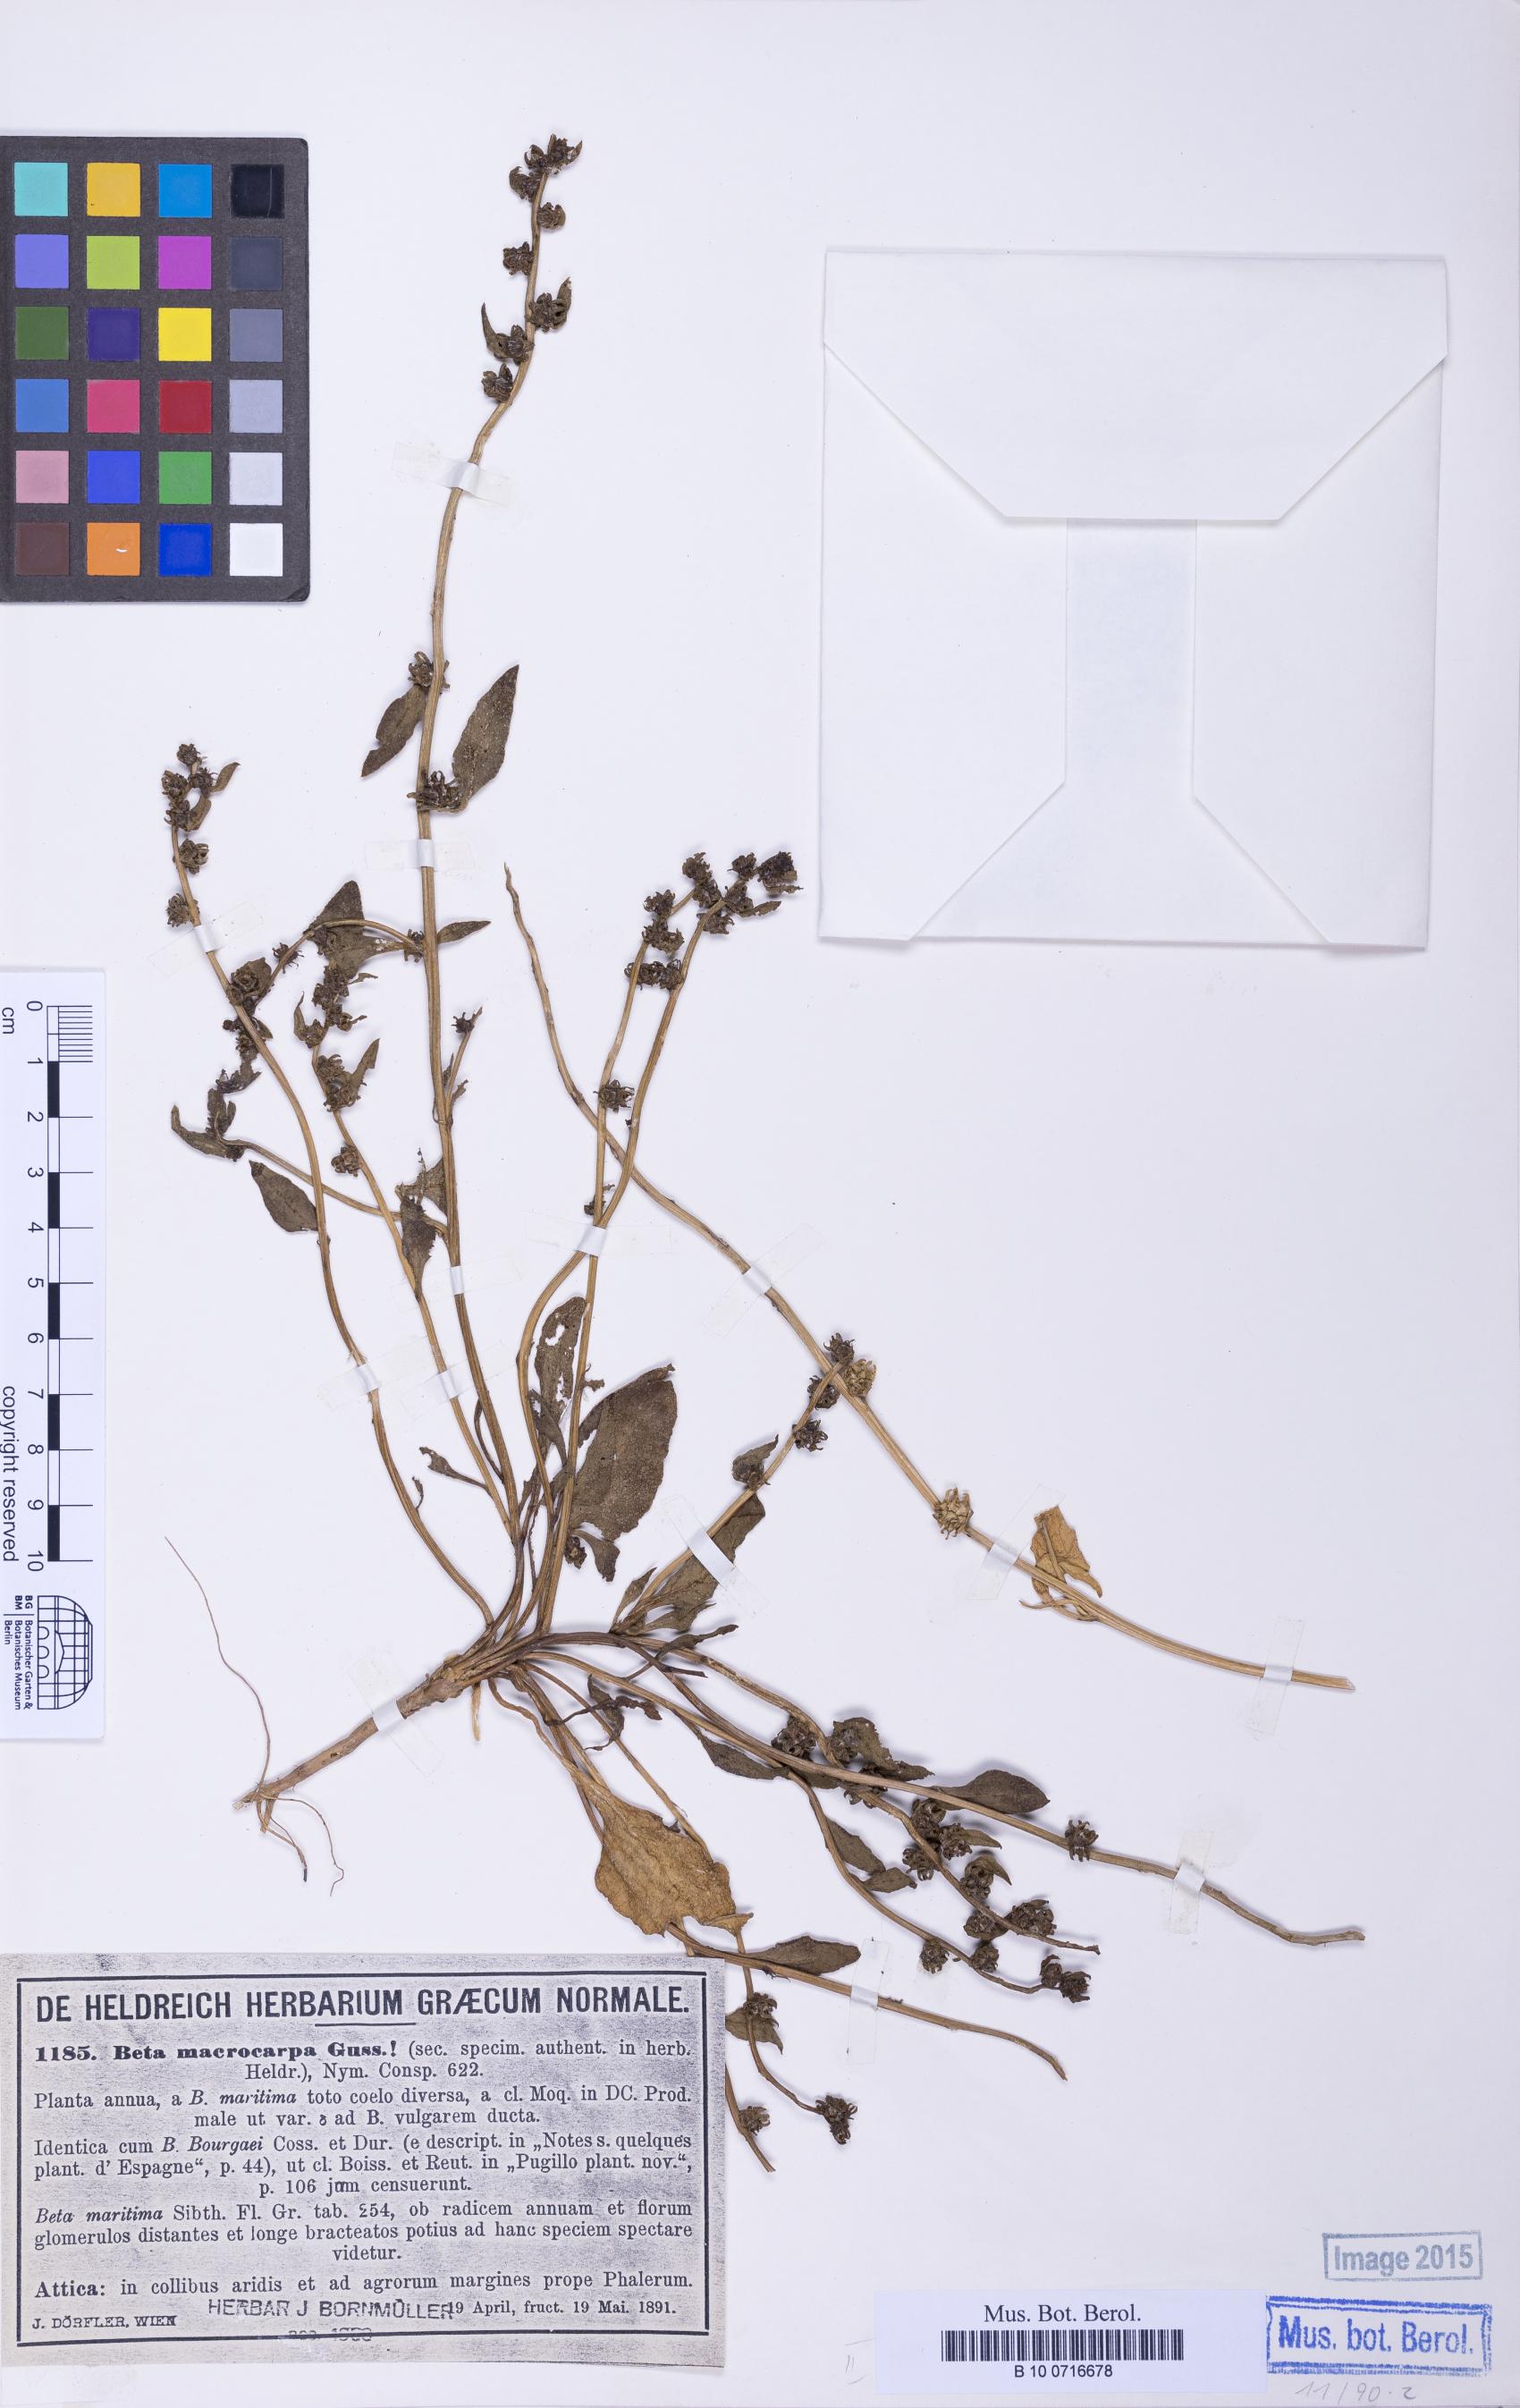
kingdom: Plantae
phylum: Tracheophyta
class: Magnoliopsida
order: Caryophyllales
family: Amaranthaceae
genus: Beta
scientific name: Beta macrocarpa
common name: Beet
